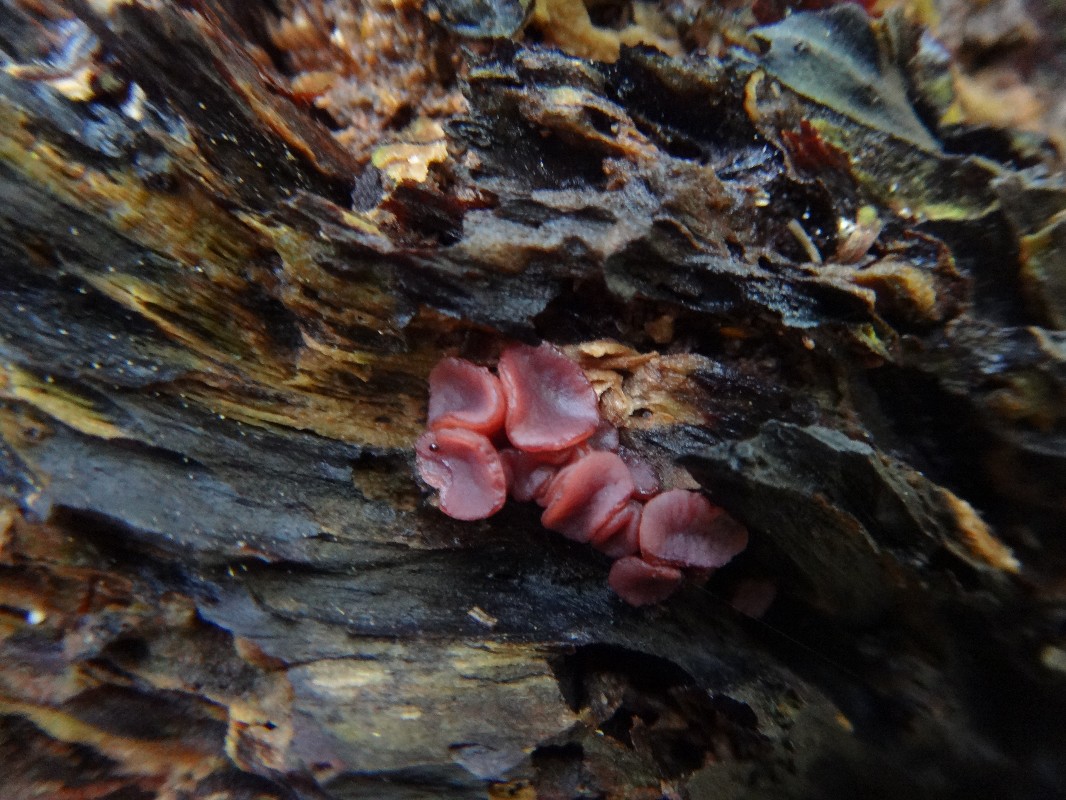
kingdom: Fungi
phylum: Ascomycota
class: Leotiomycetes
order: Helotiales
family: Gelatinodiscaceae
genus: Ascocoryne
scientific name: Ascocoryne
